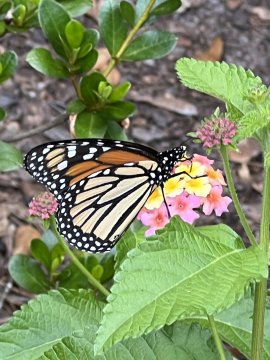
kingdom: Animalia
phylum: Arthropoda
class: Insecta
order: Lepidoptera
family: Nymphalidae
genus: Danaus
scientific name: Danaus plexippus
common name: Monarch
